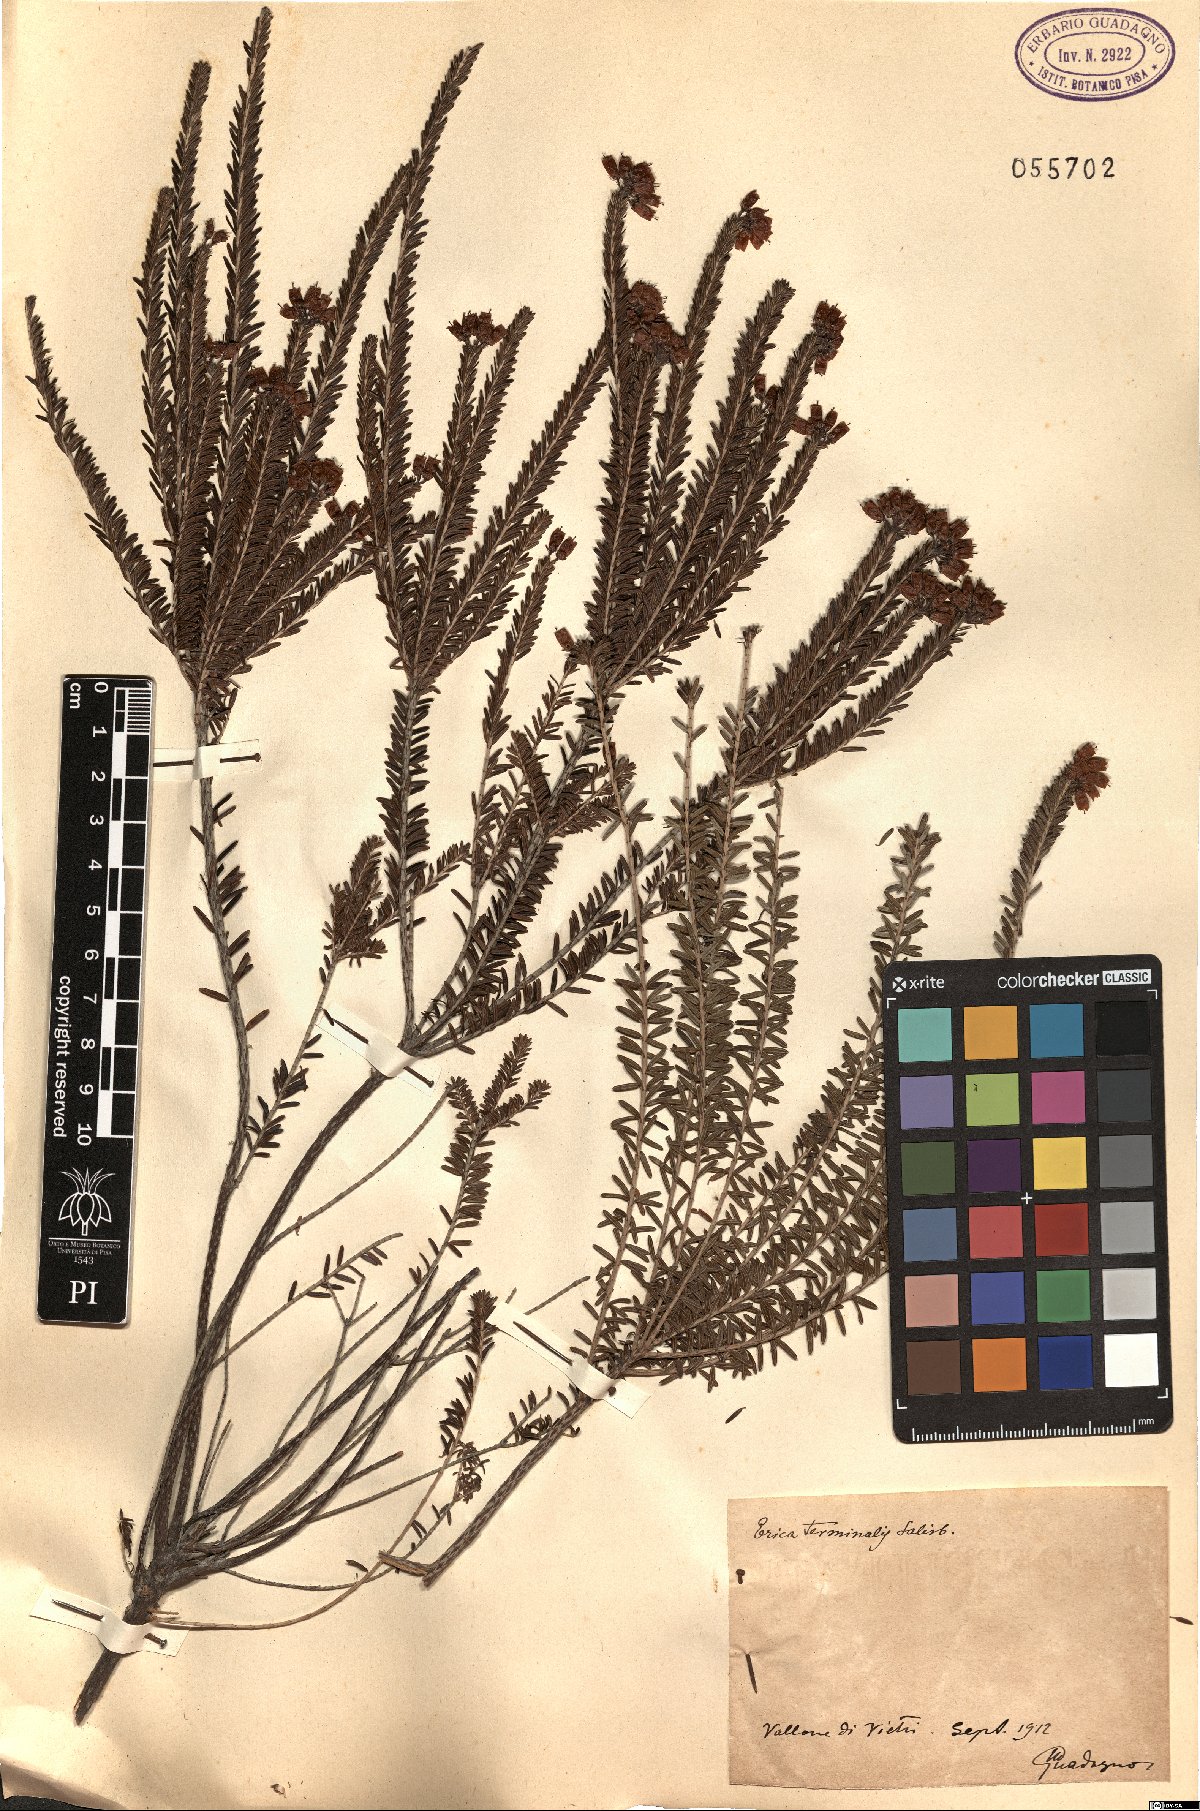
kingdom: Plantae
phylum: Tracheophyta
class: Magnoliopsida
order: Ericales
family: Ericaceae
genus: Erica
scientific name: Erica terminalis
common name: Corsican heath
